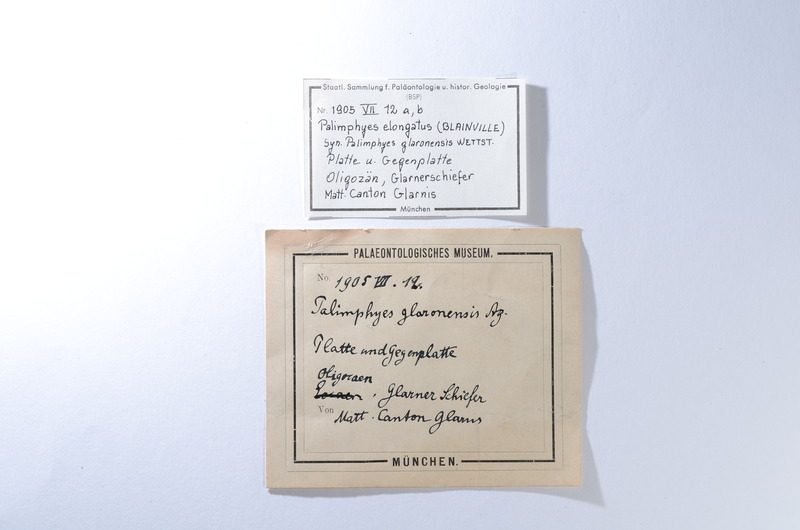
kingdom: Animalia
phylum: Chordata
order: Perciformes
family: Euzaphlegidae
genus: Palimphyes
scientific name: Palimphyes Clupea elongata
